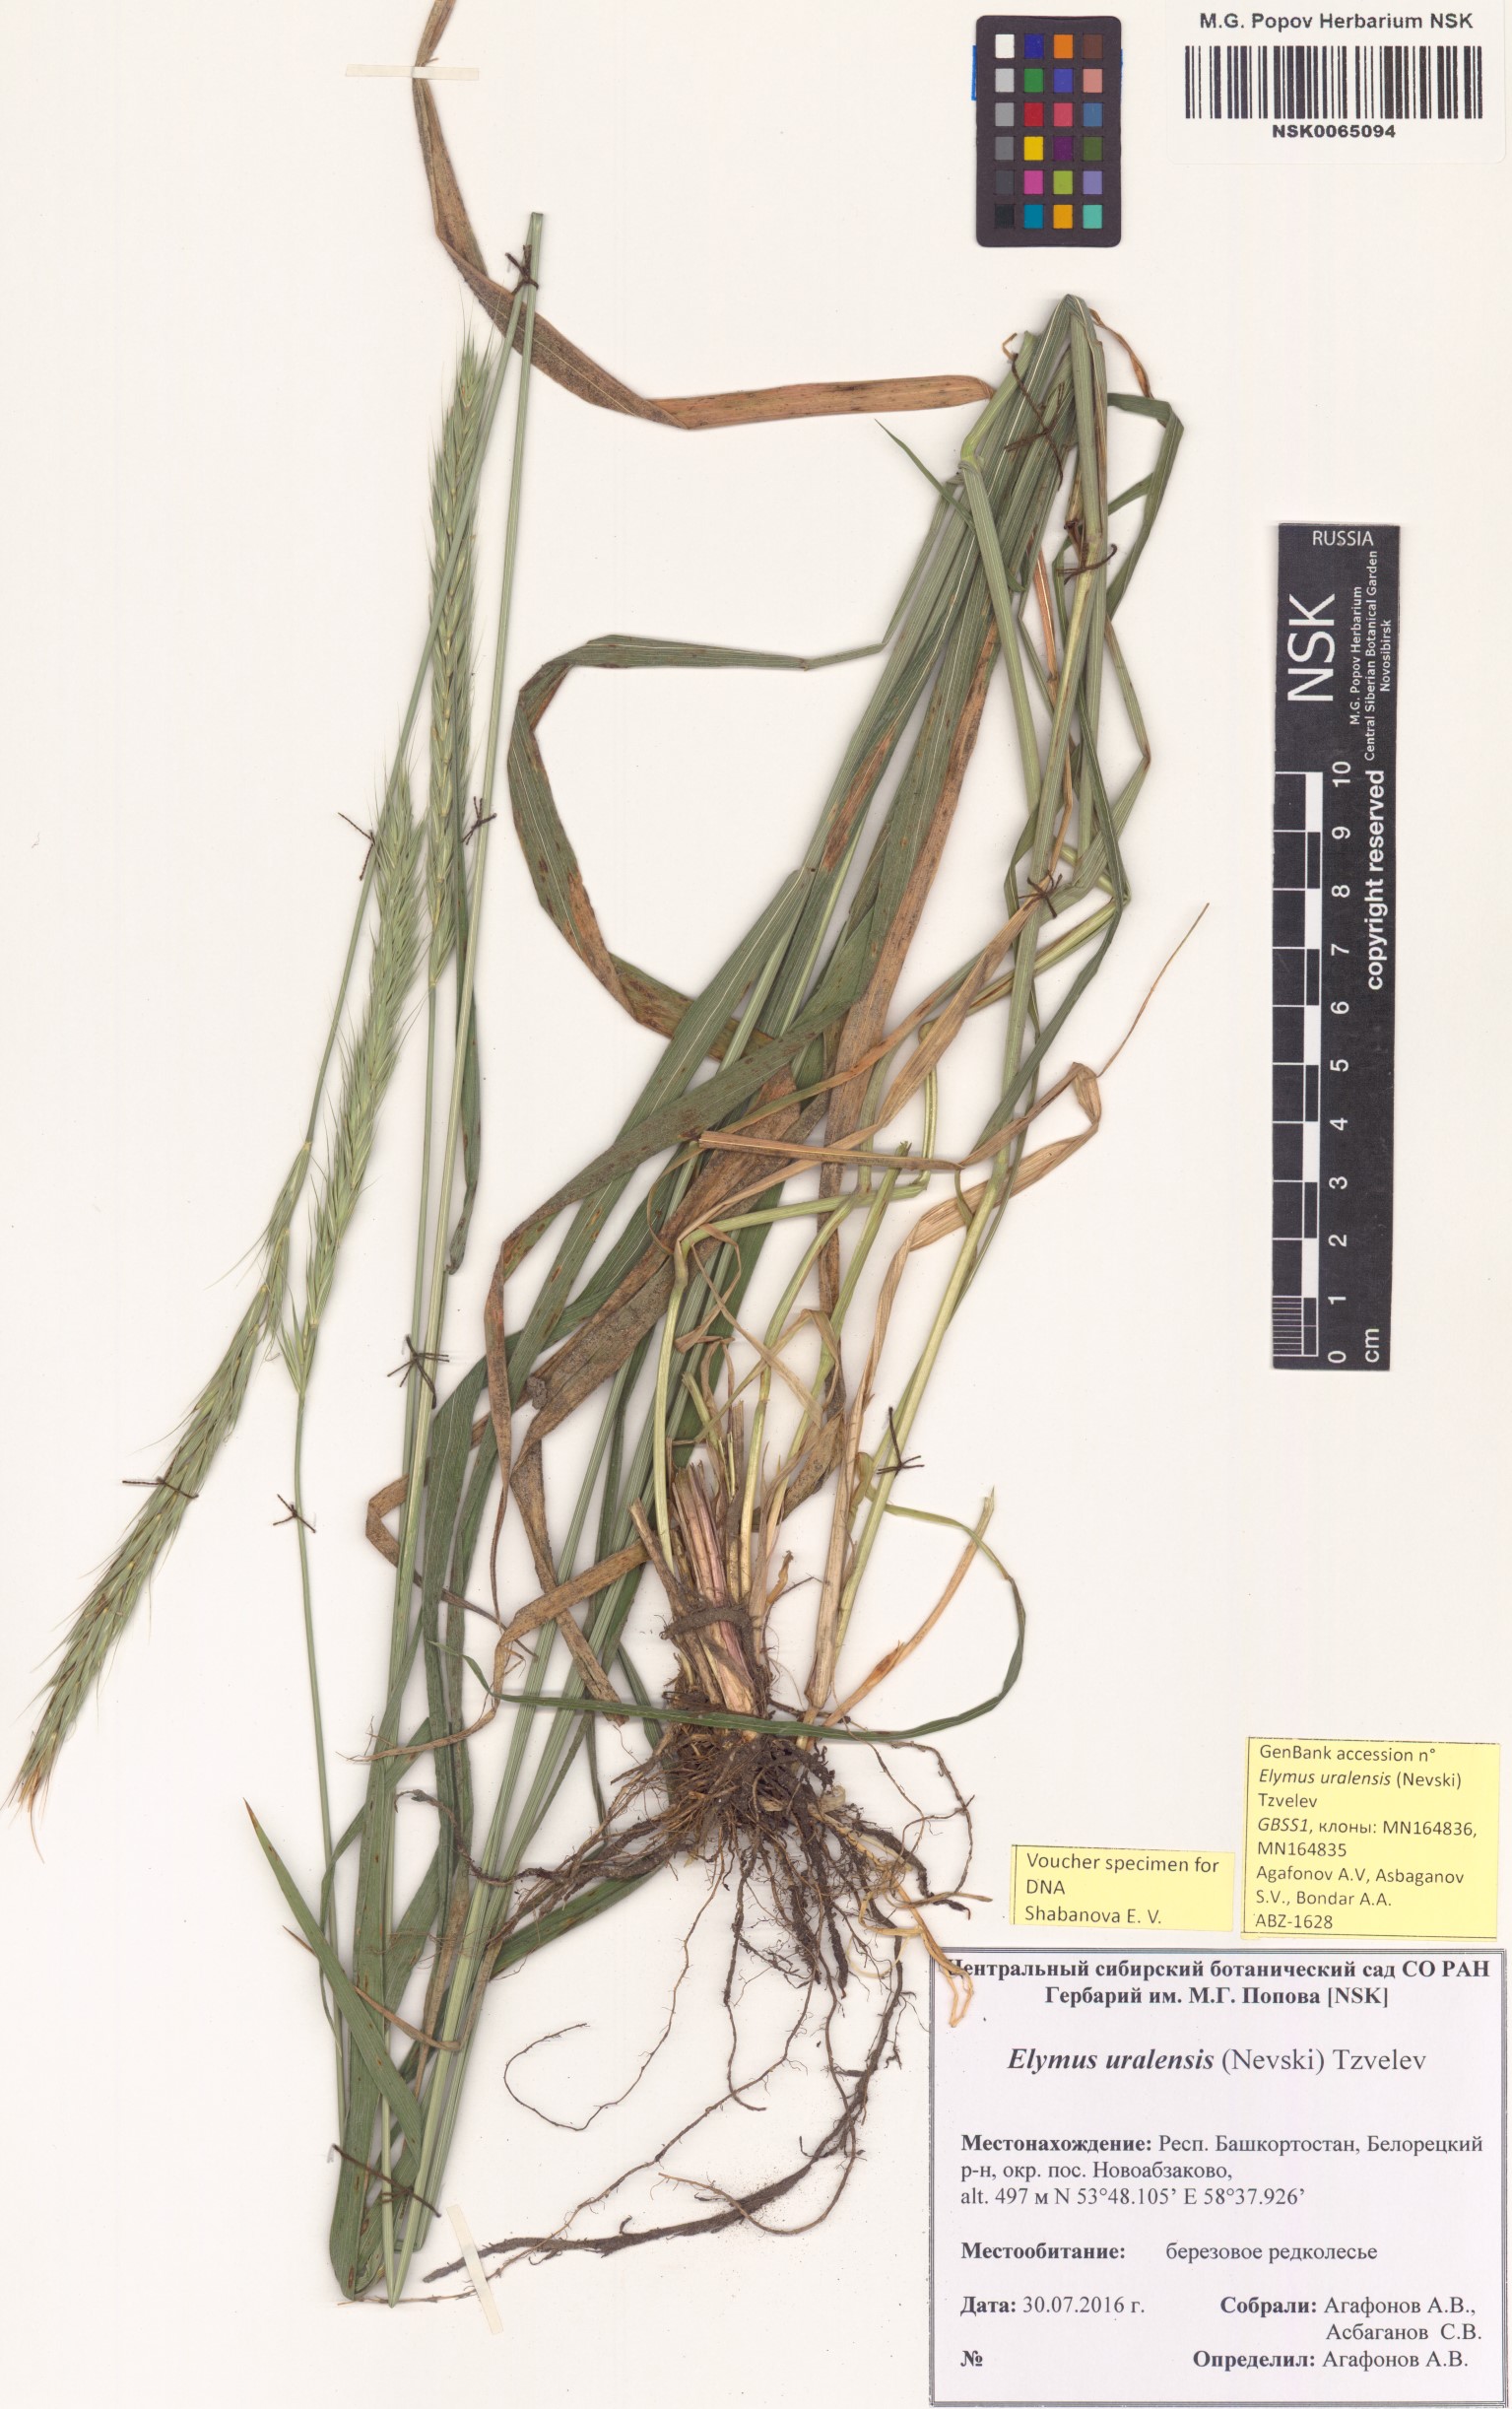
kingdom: Plantae
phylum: Tracheophyta
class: Liliopsida
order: Poales
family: Poaceae
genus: Elymus
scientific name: Elymus uralensis
